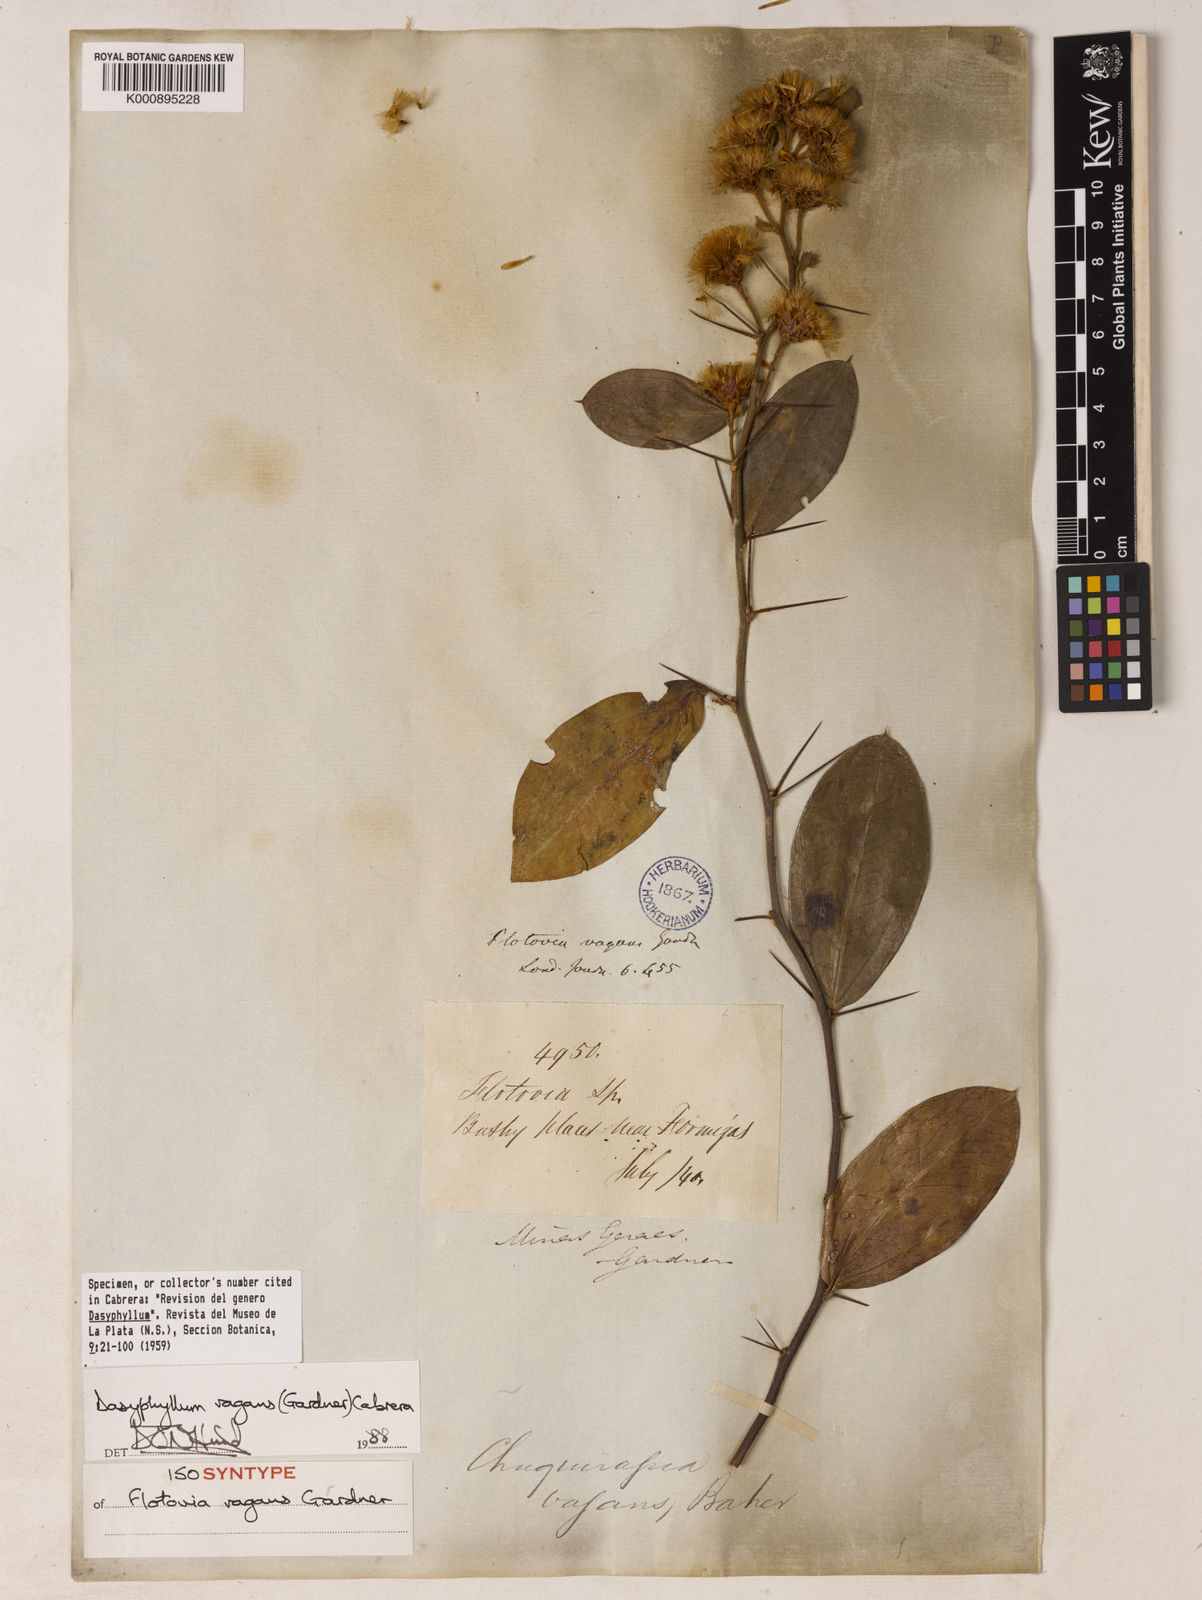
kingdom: Plantae
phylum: Tracheophyta
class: Magnoliopsida
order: Asterales
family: Asteraceae
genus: Dasyphyllum
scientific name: Dasyphyllum vagans
